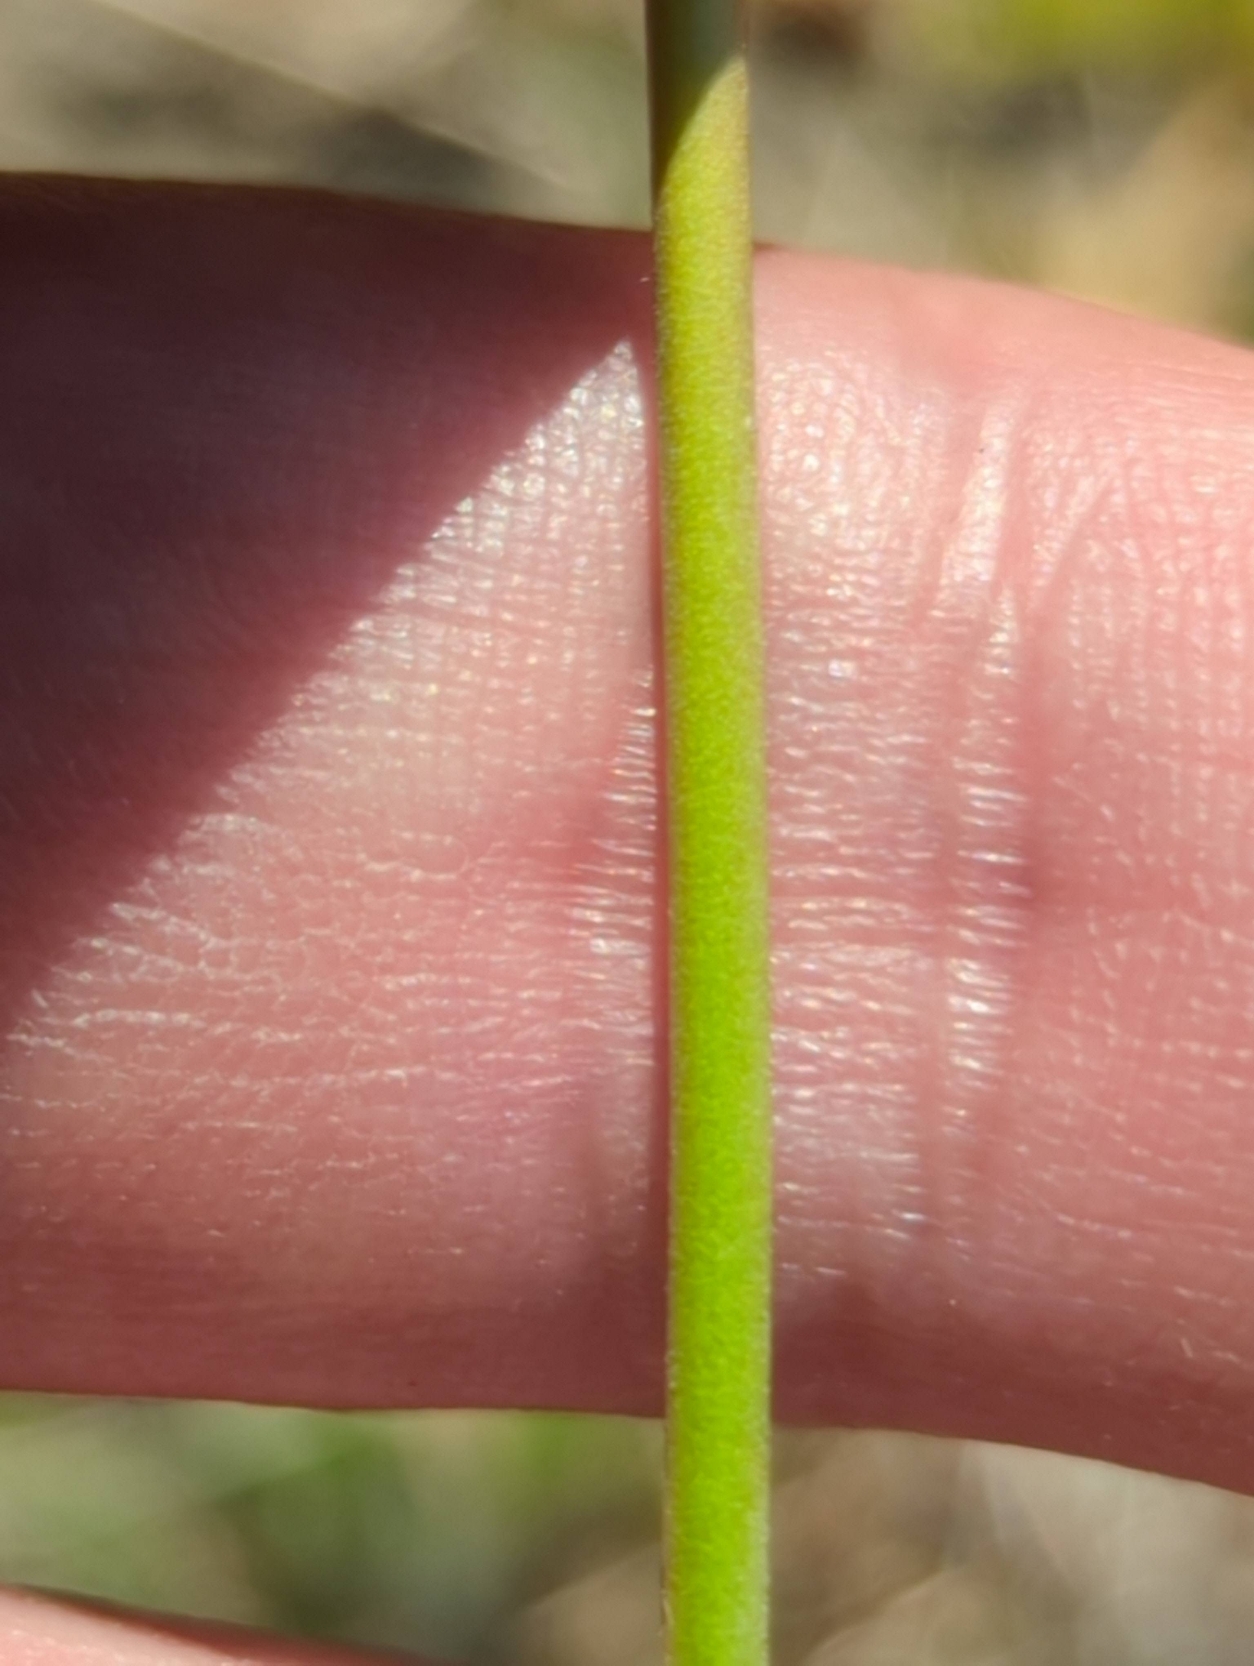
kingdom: Plantae
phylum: Tracheophyta
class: Magnoliopsida
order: Caryophyllales
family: Plumbaginaceae
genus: Armeria
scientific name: Armeria maritima
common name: Vej-engelskgræs
